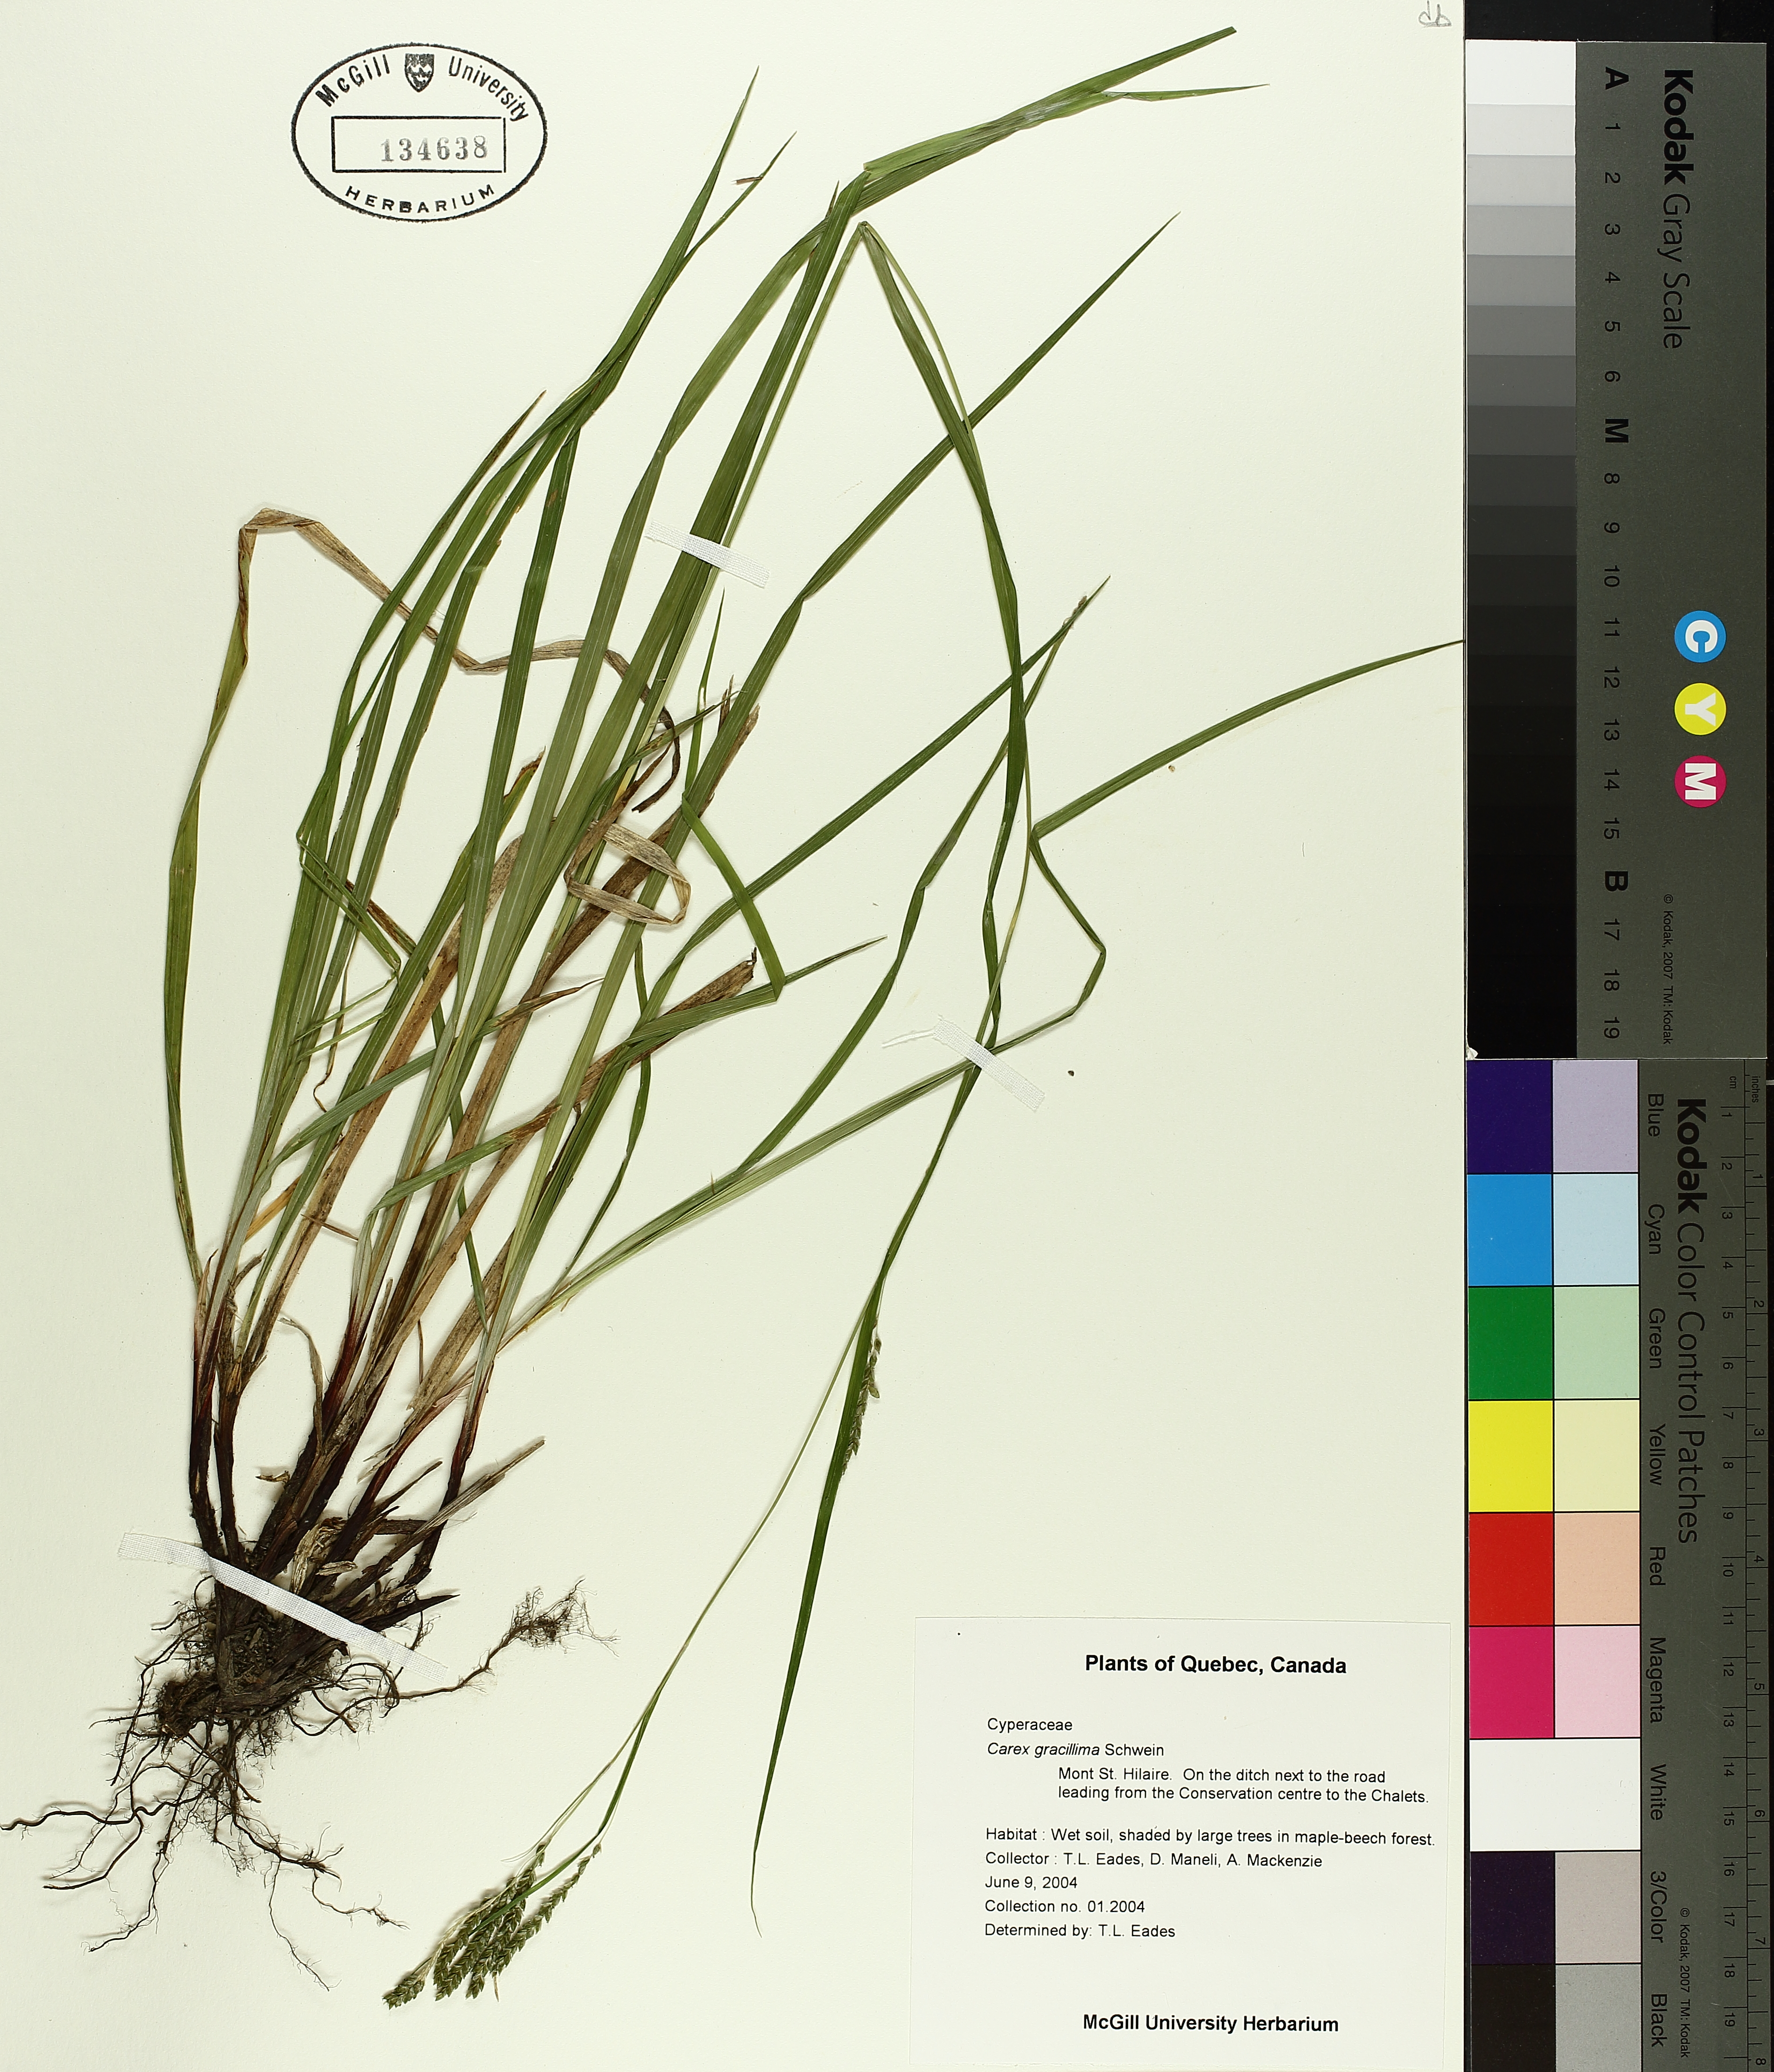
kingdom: Plantae
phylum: Tracheophyta
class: Liliopsida
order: Poales
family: Cyperaceae
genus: Carex
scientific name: Carex gracillima
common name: Graceful sedge
